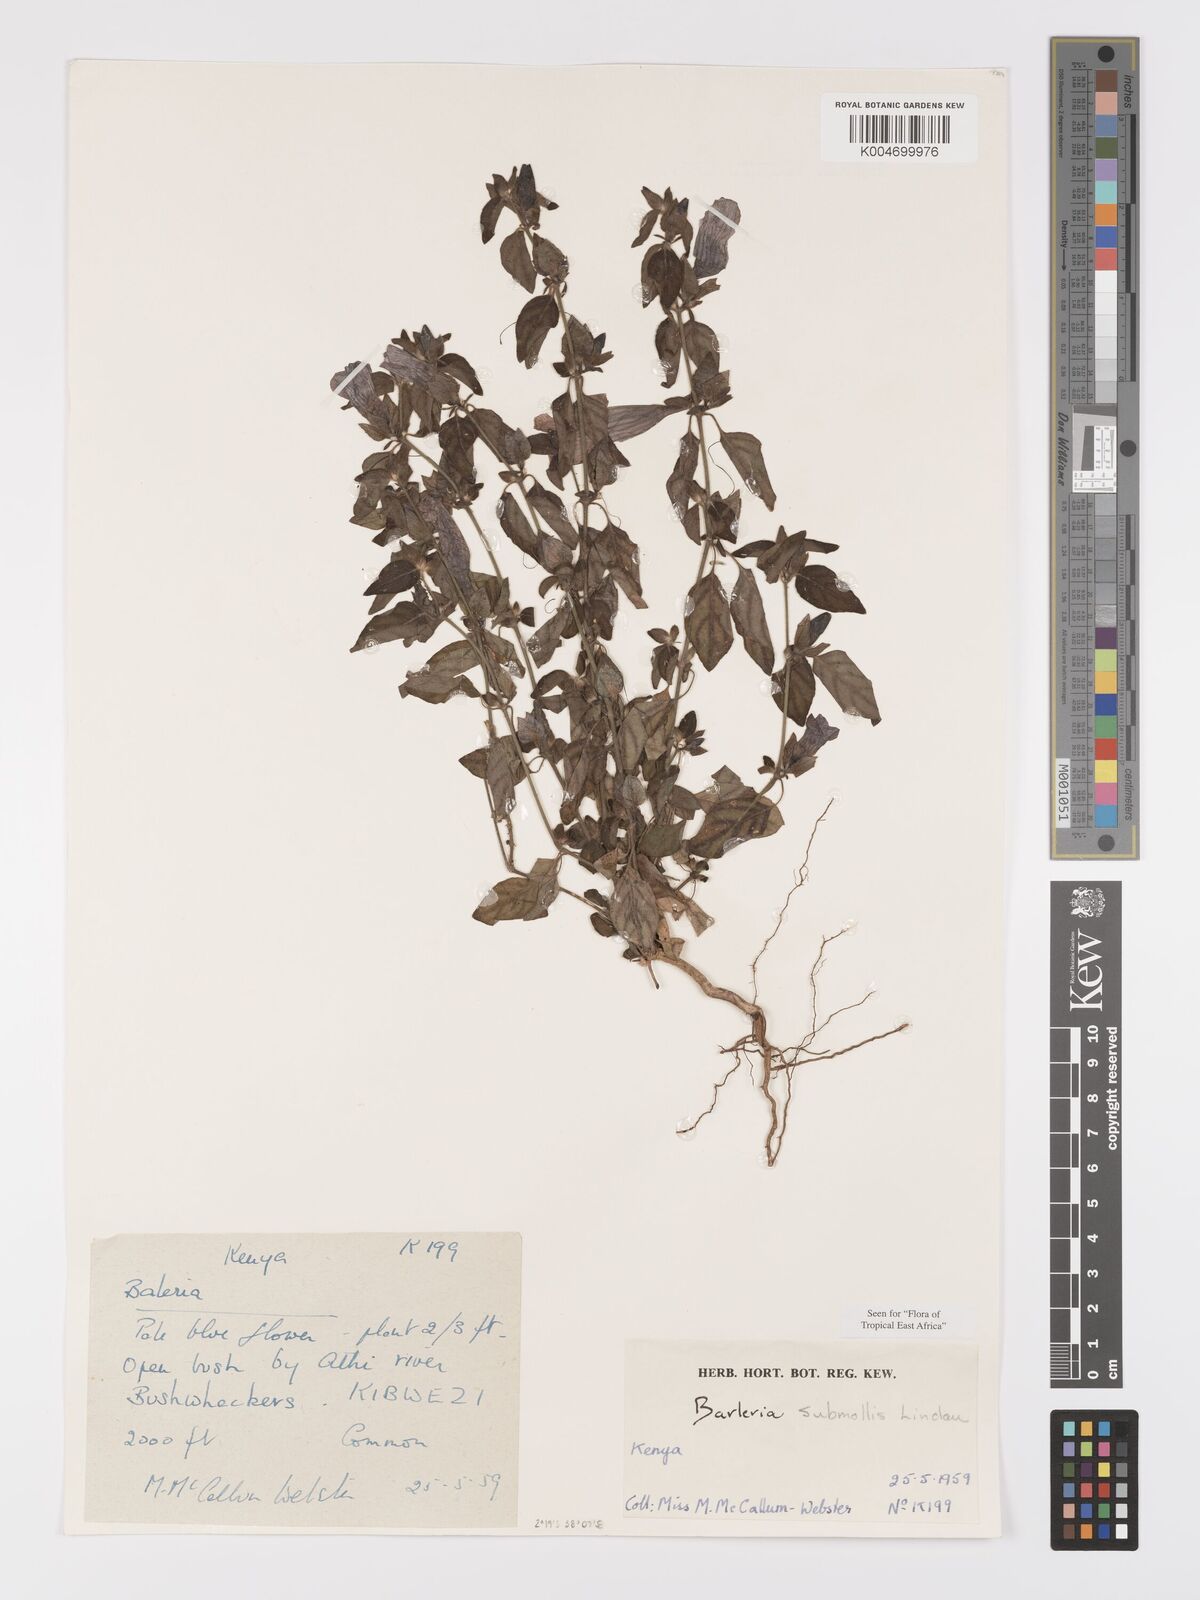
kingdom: Plantae
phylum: Tracheophyta
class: Magnoliopsida
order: Lamiales
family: Acanthaceae
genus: Barleria
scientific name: Barleria submollis
